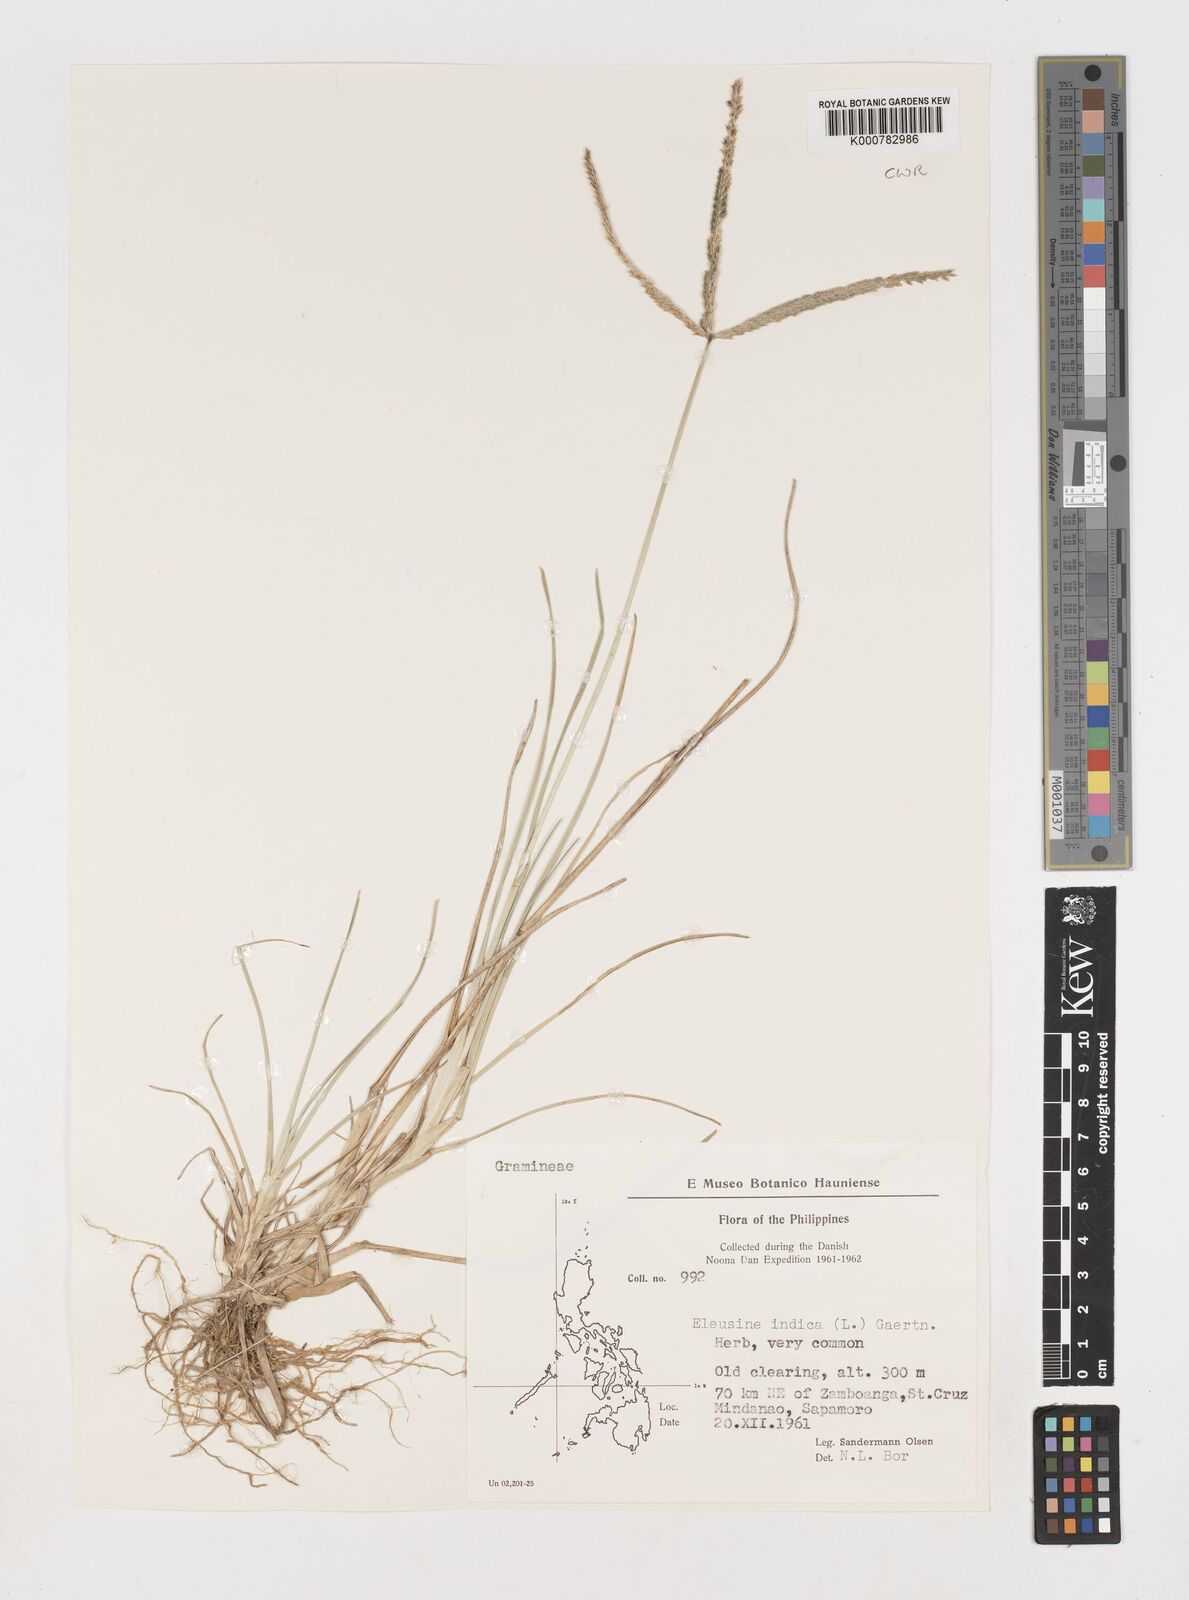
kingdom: Plantae
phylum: Tracheophyta
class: Liliopsida
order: Poales
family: Poaceae
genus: Eleusine
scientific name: Eleusine indica
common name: Yard-grass
